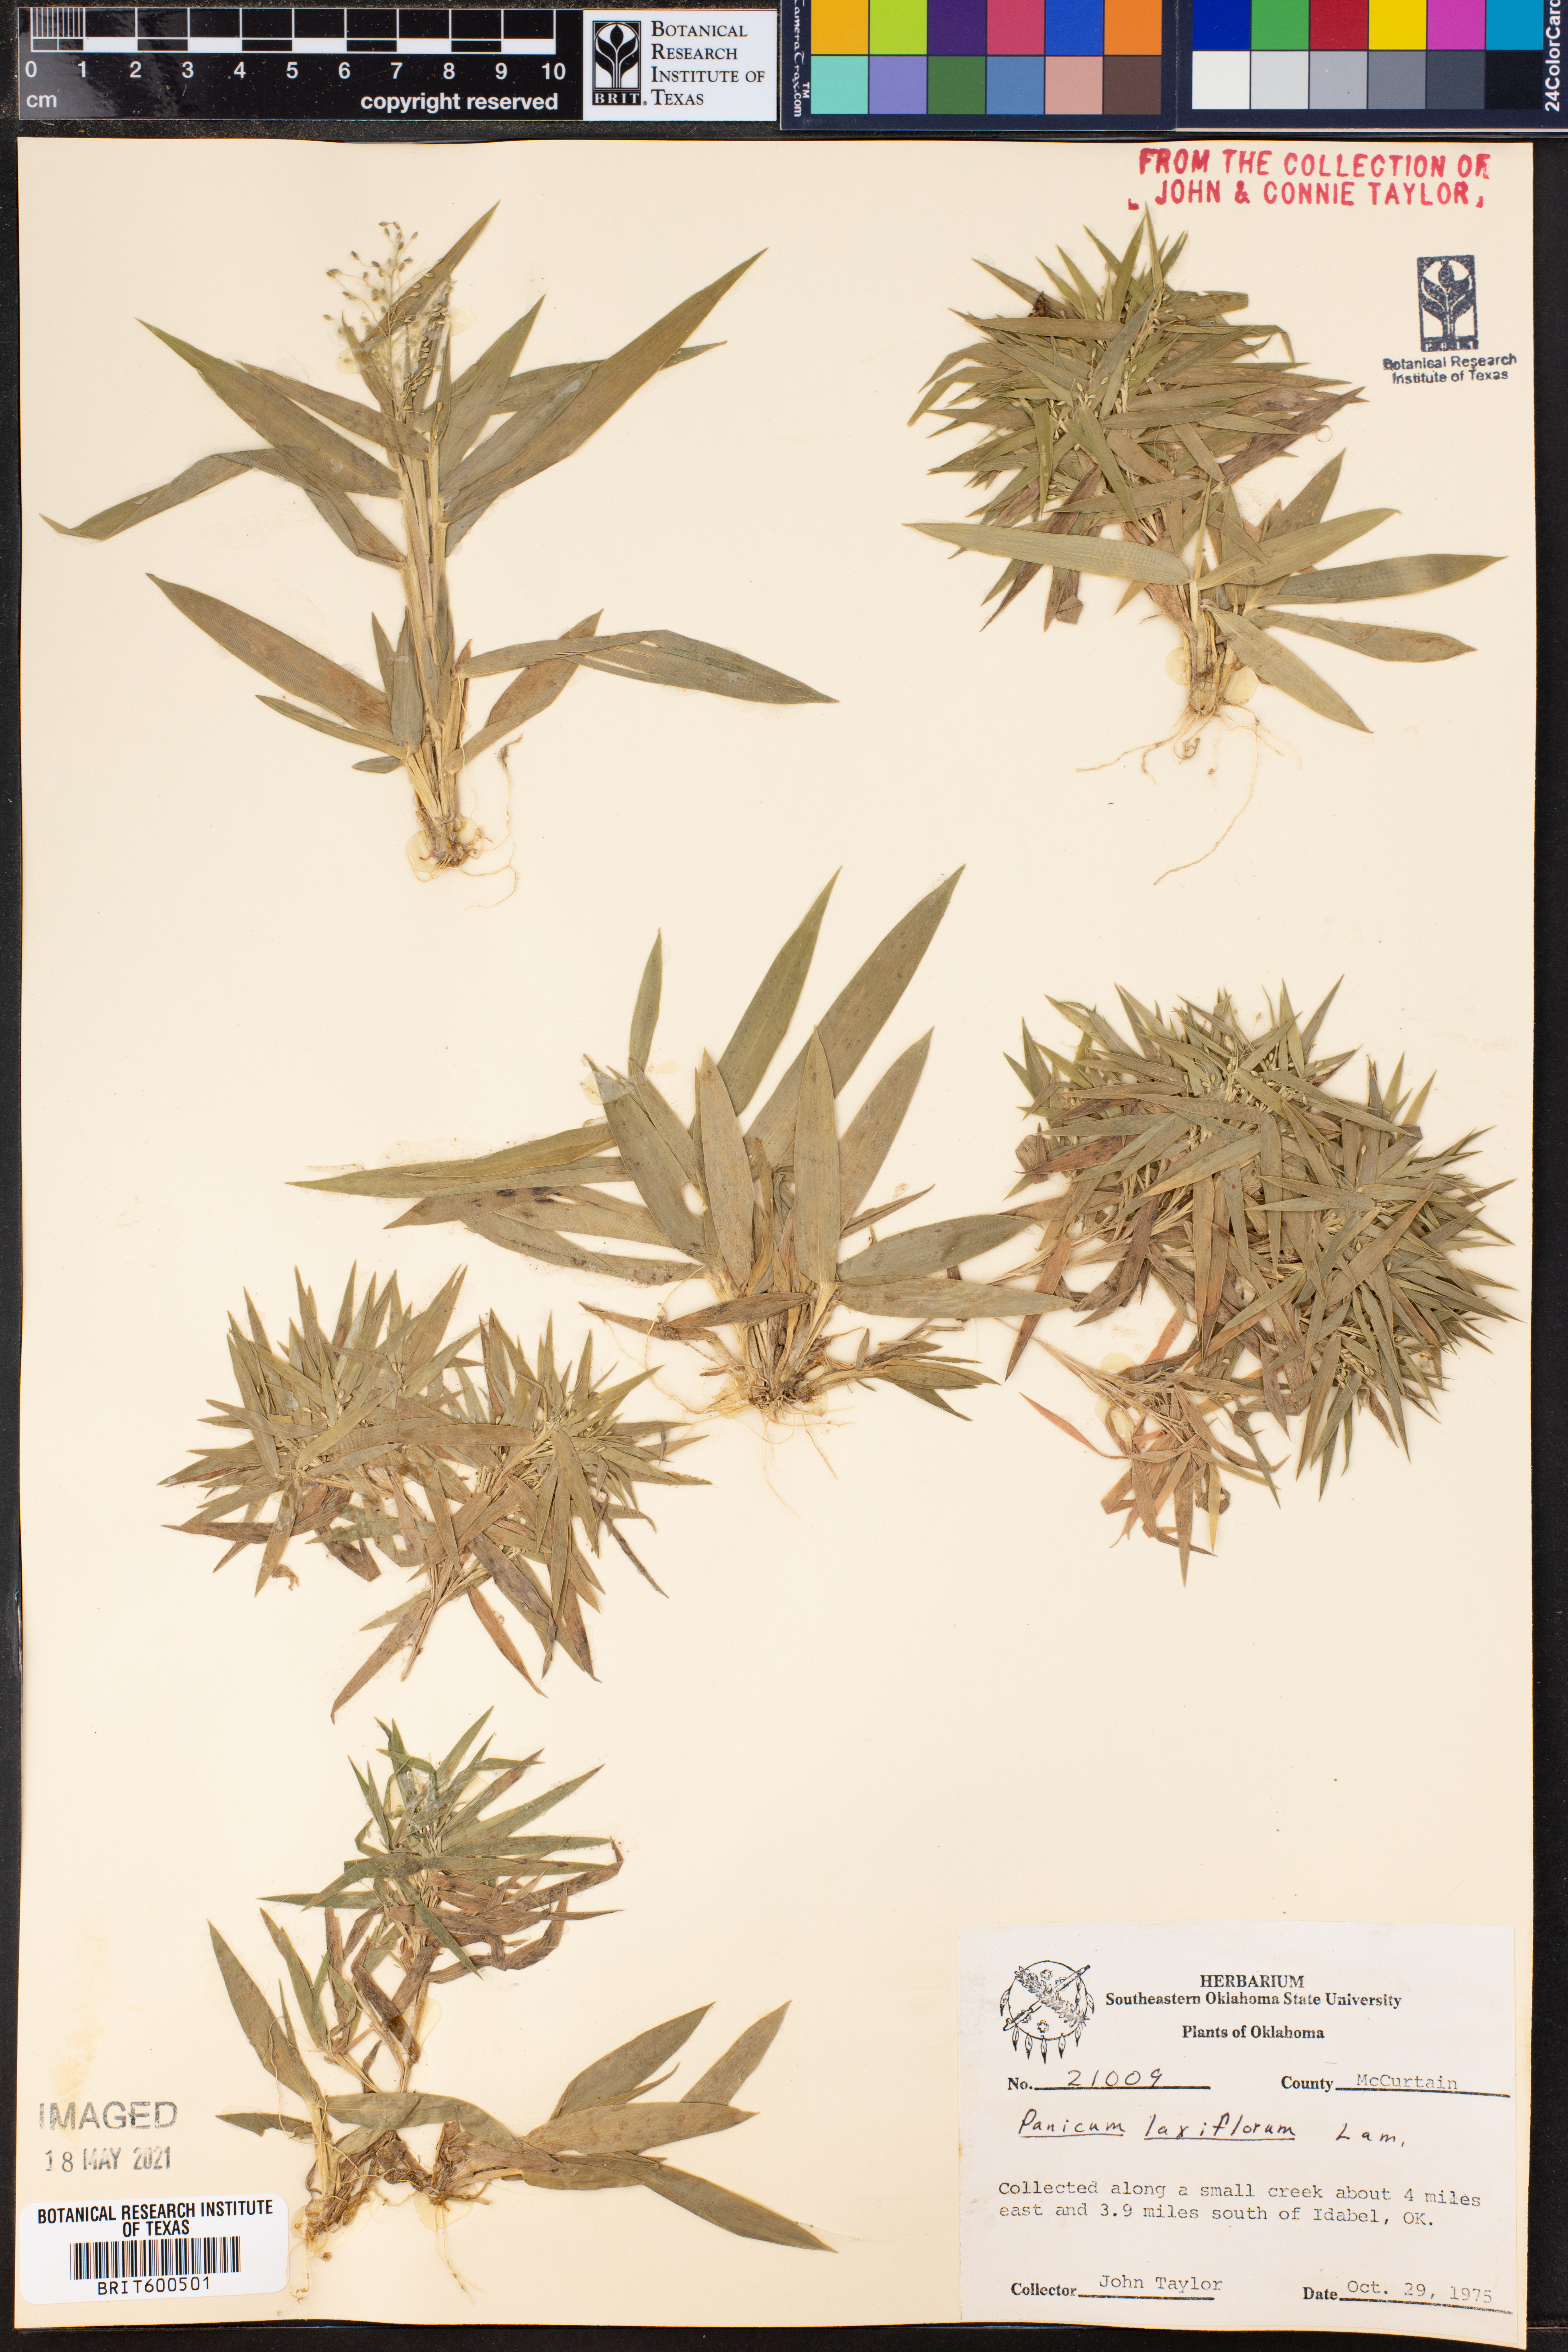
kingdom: Plantae
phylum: Tracheophyta
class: Liliopsida
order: Poales
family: Poaceae
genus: Dichanthelium
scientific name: Dichanthelium laxiflorum
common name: Soft-tuft panic grass
